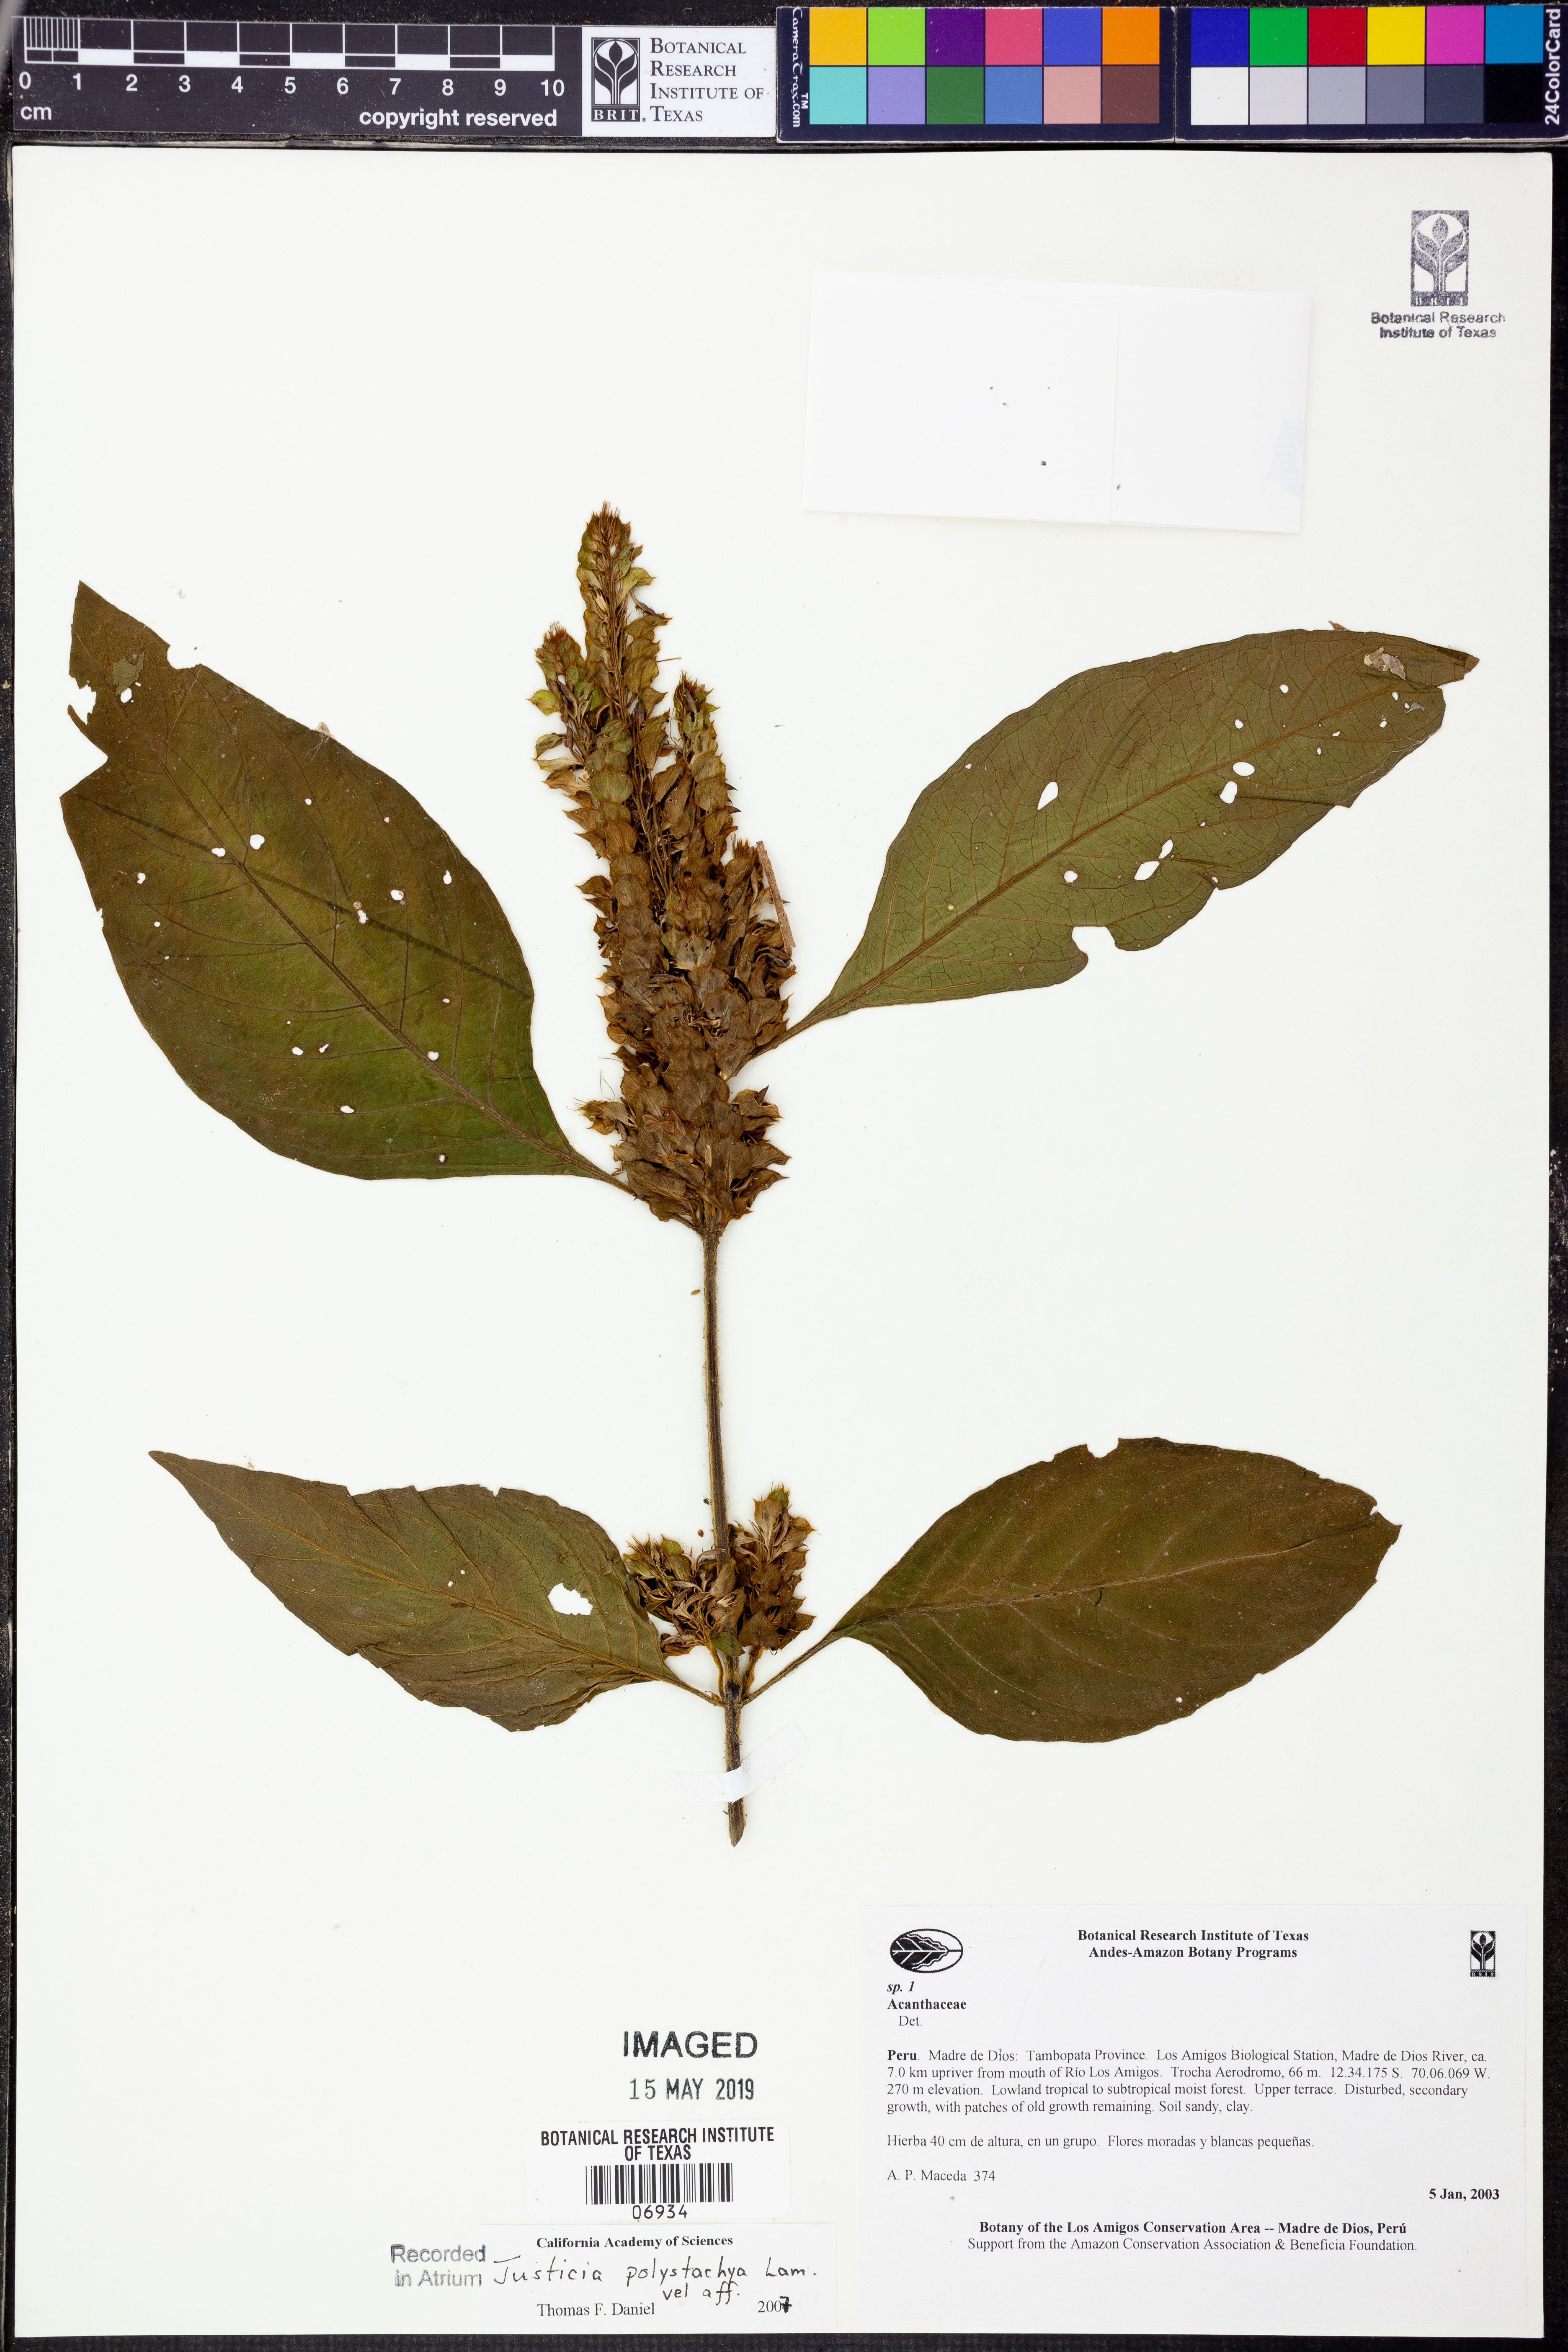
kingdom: Plantae
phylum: Tracheophyta
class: Magnoliopsida
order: Lamiales
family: Acanthaceae
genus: Justicia
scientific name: Justicia polystachya
